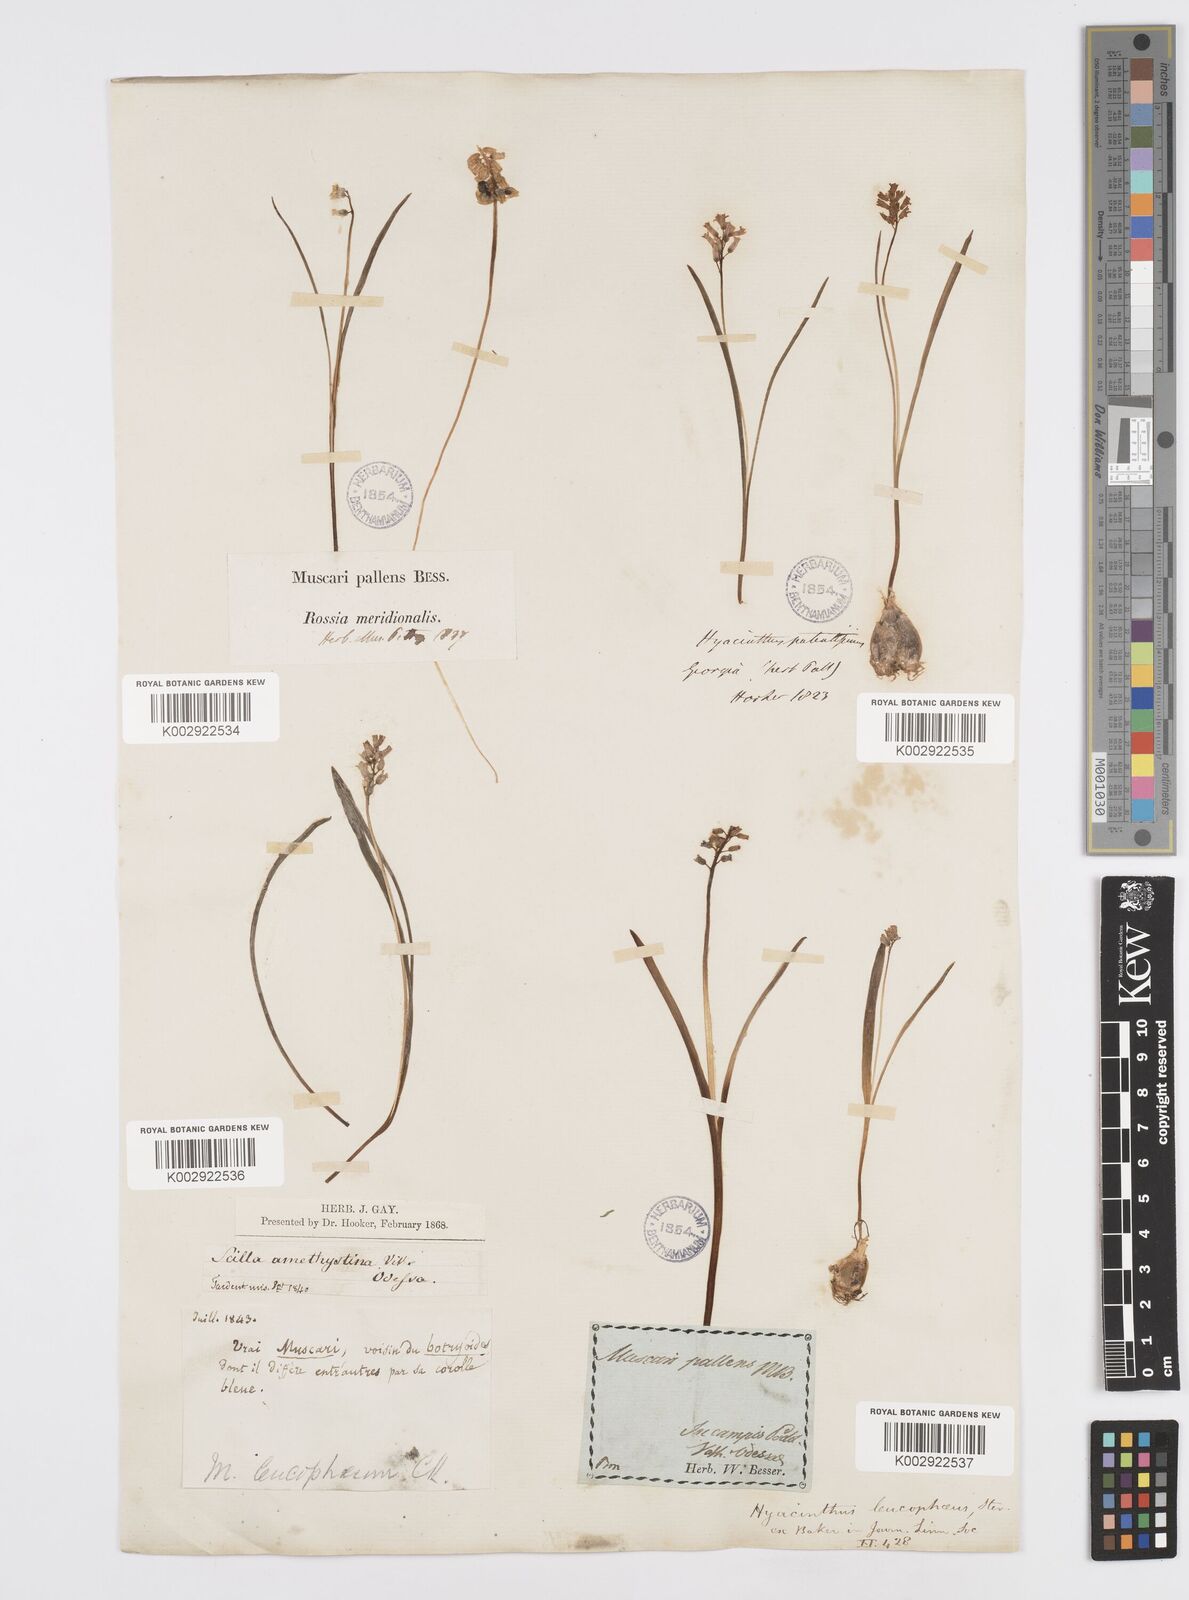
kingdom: Plantae
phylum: Tracheophyta
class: Liliopsida
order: Asparagales
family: Asparagaceae
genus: Hyacinthella
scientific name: Hyacinthella leucophaea
